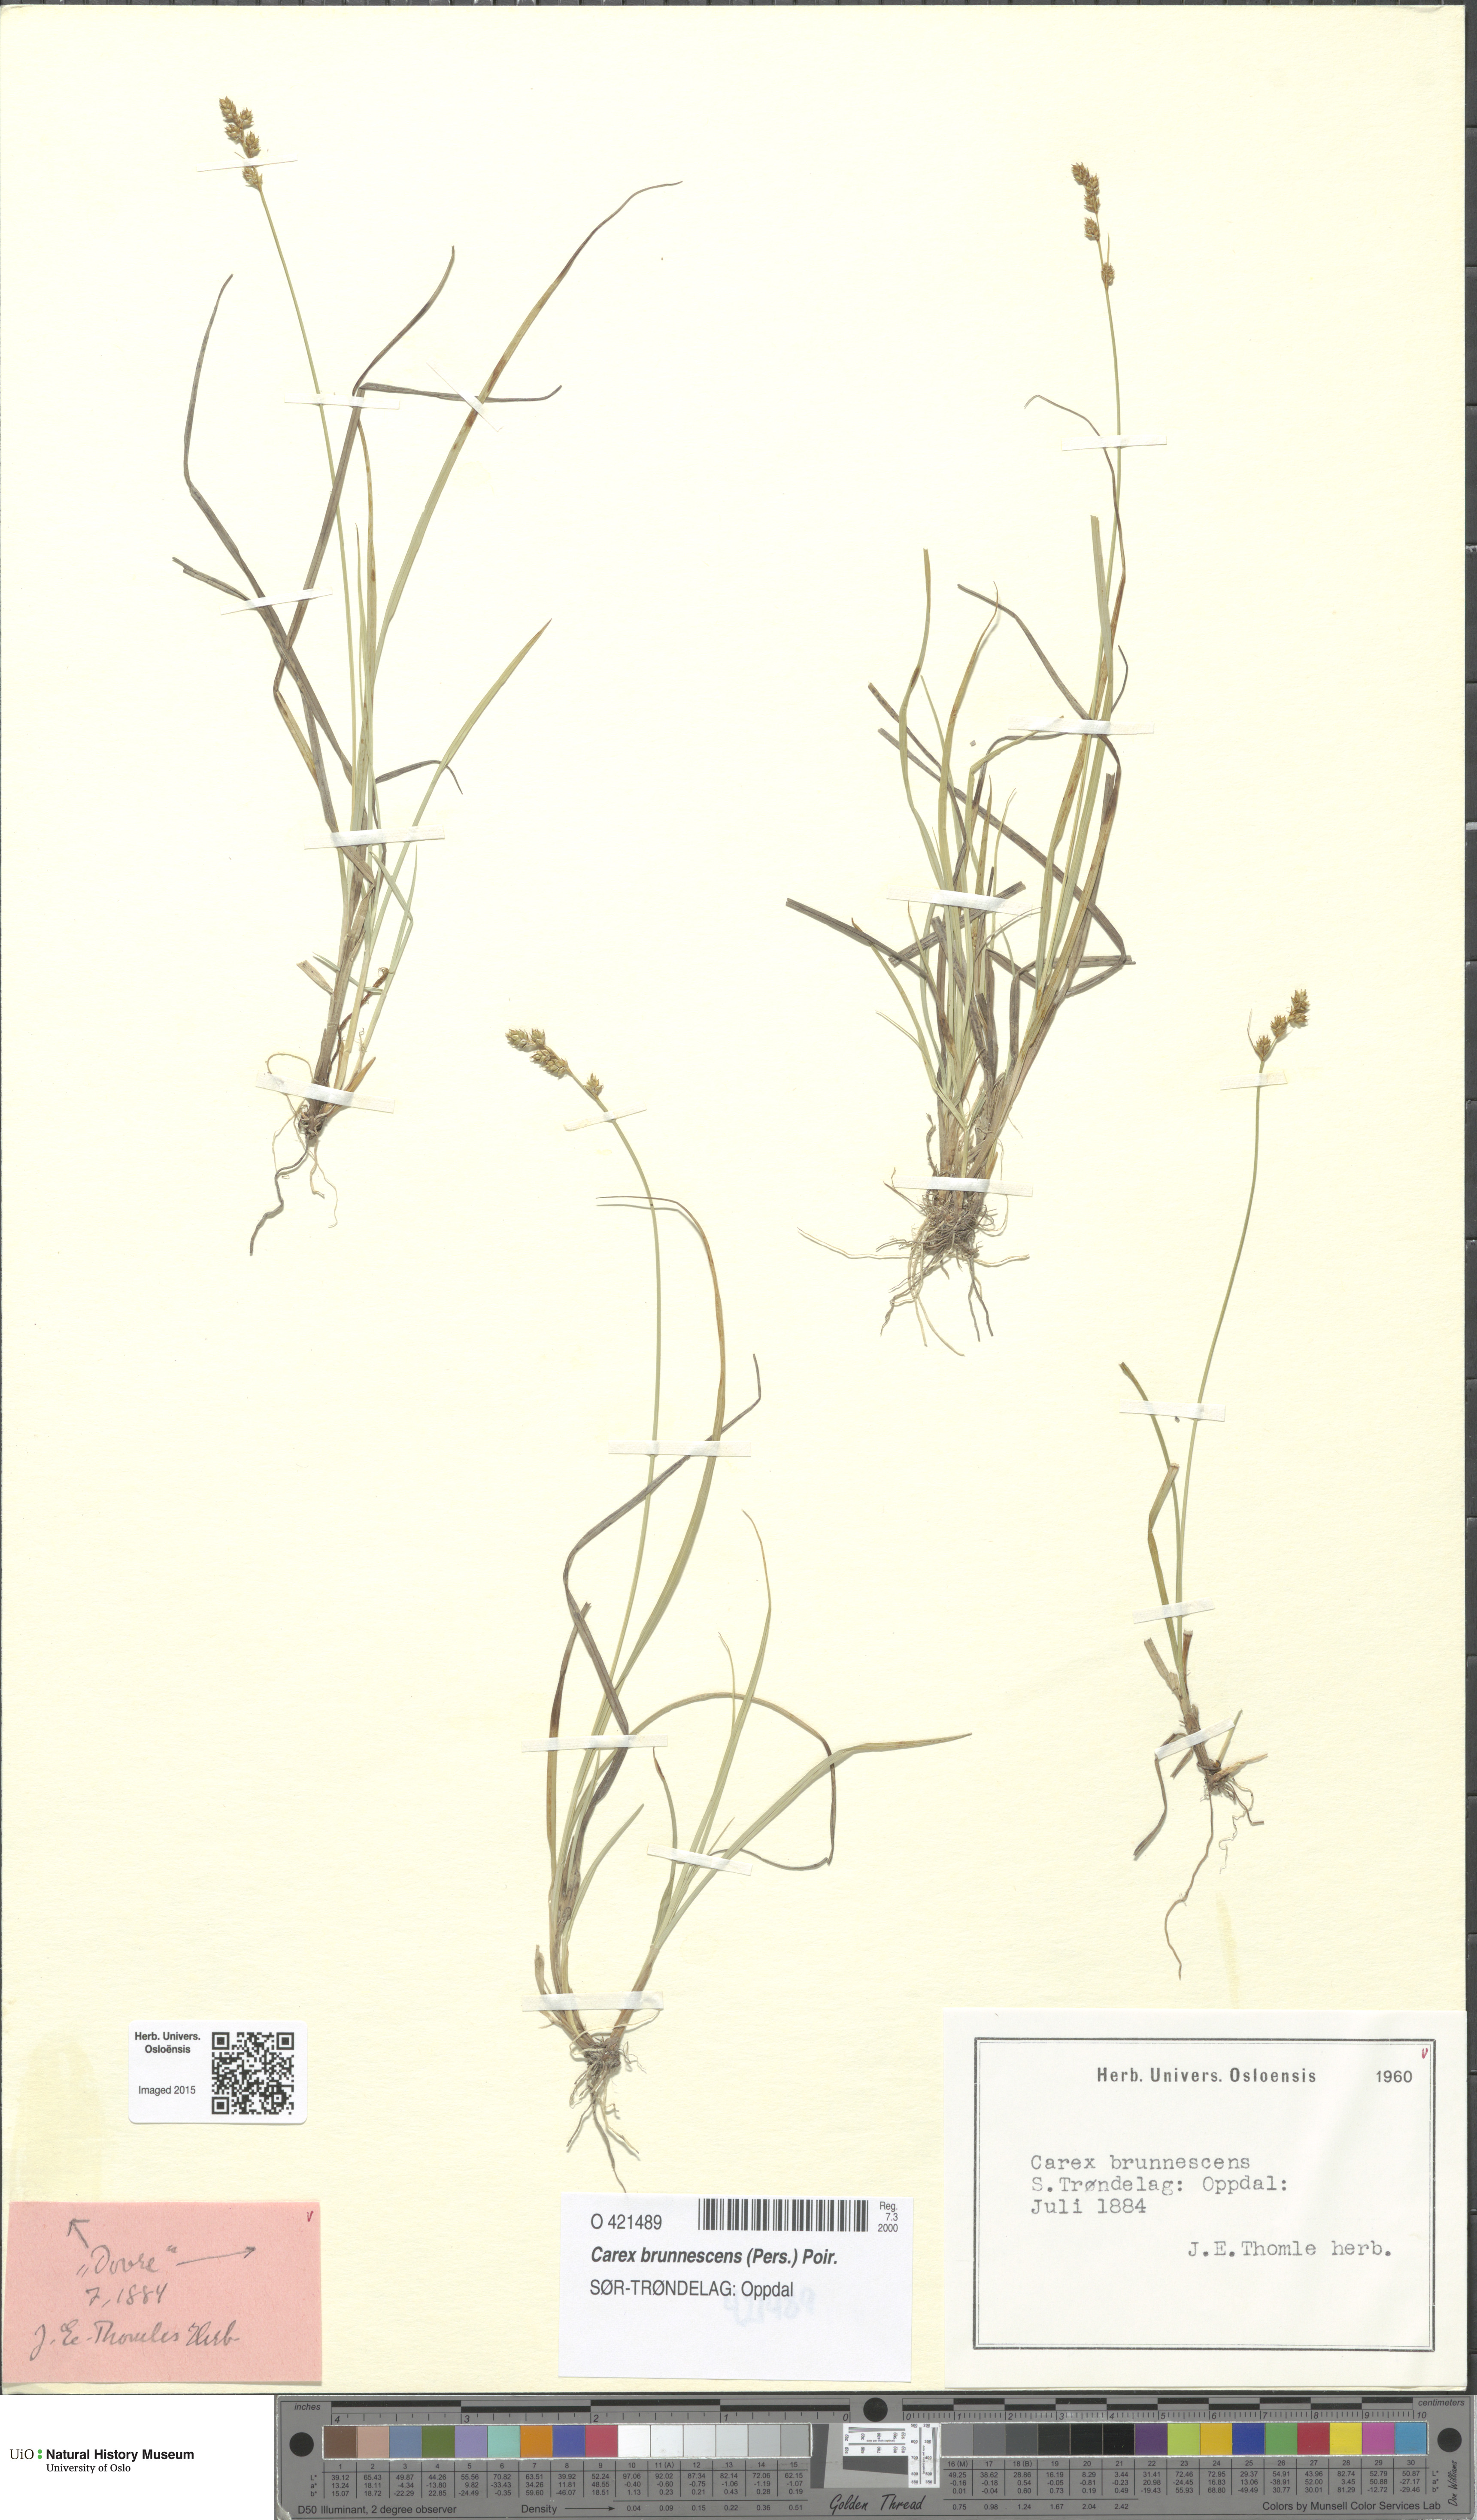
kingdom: Plantae
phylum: Tracheophyta
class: Liliopsida
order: Poales
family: Cyperaceae
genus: Carex
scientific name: Carex brunnescens
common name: Brown sedge
